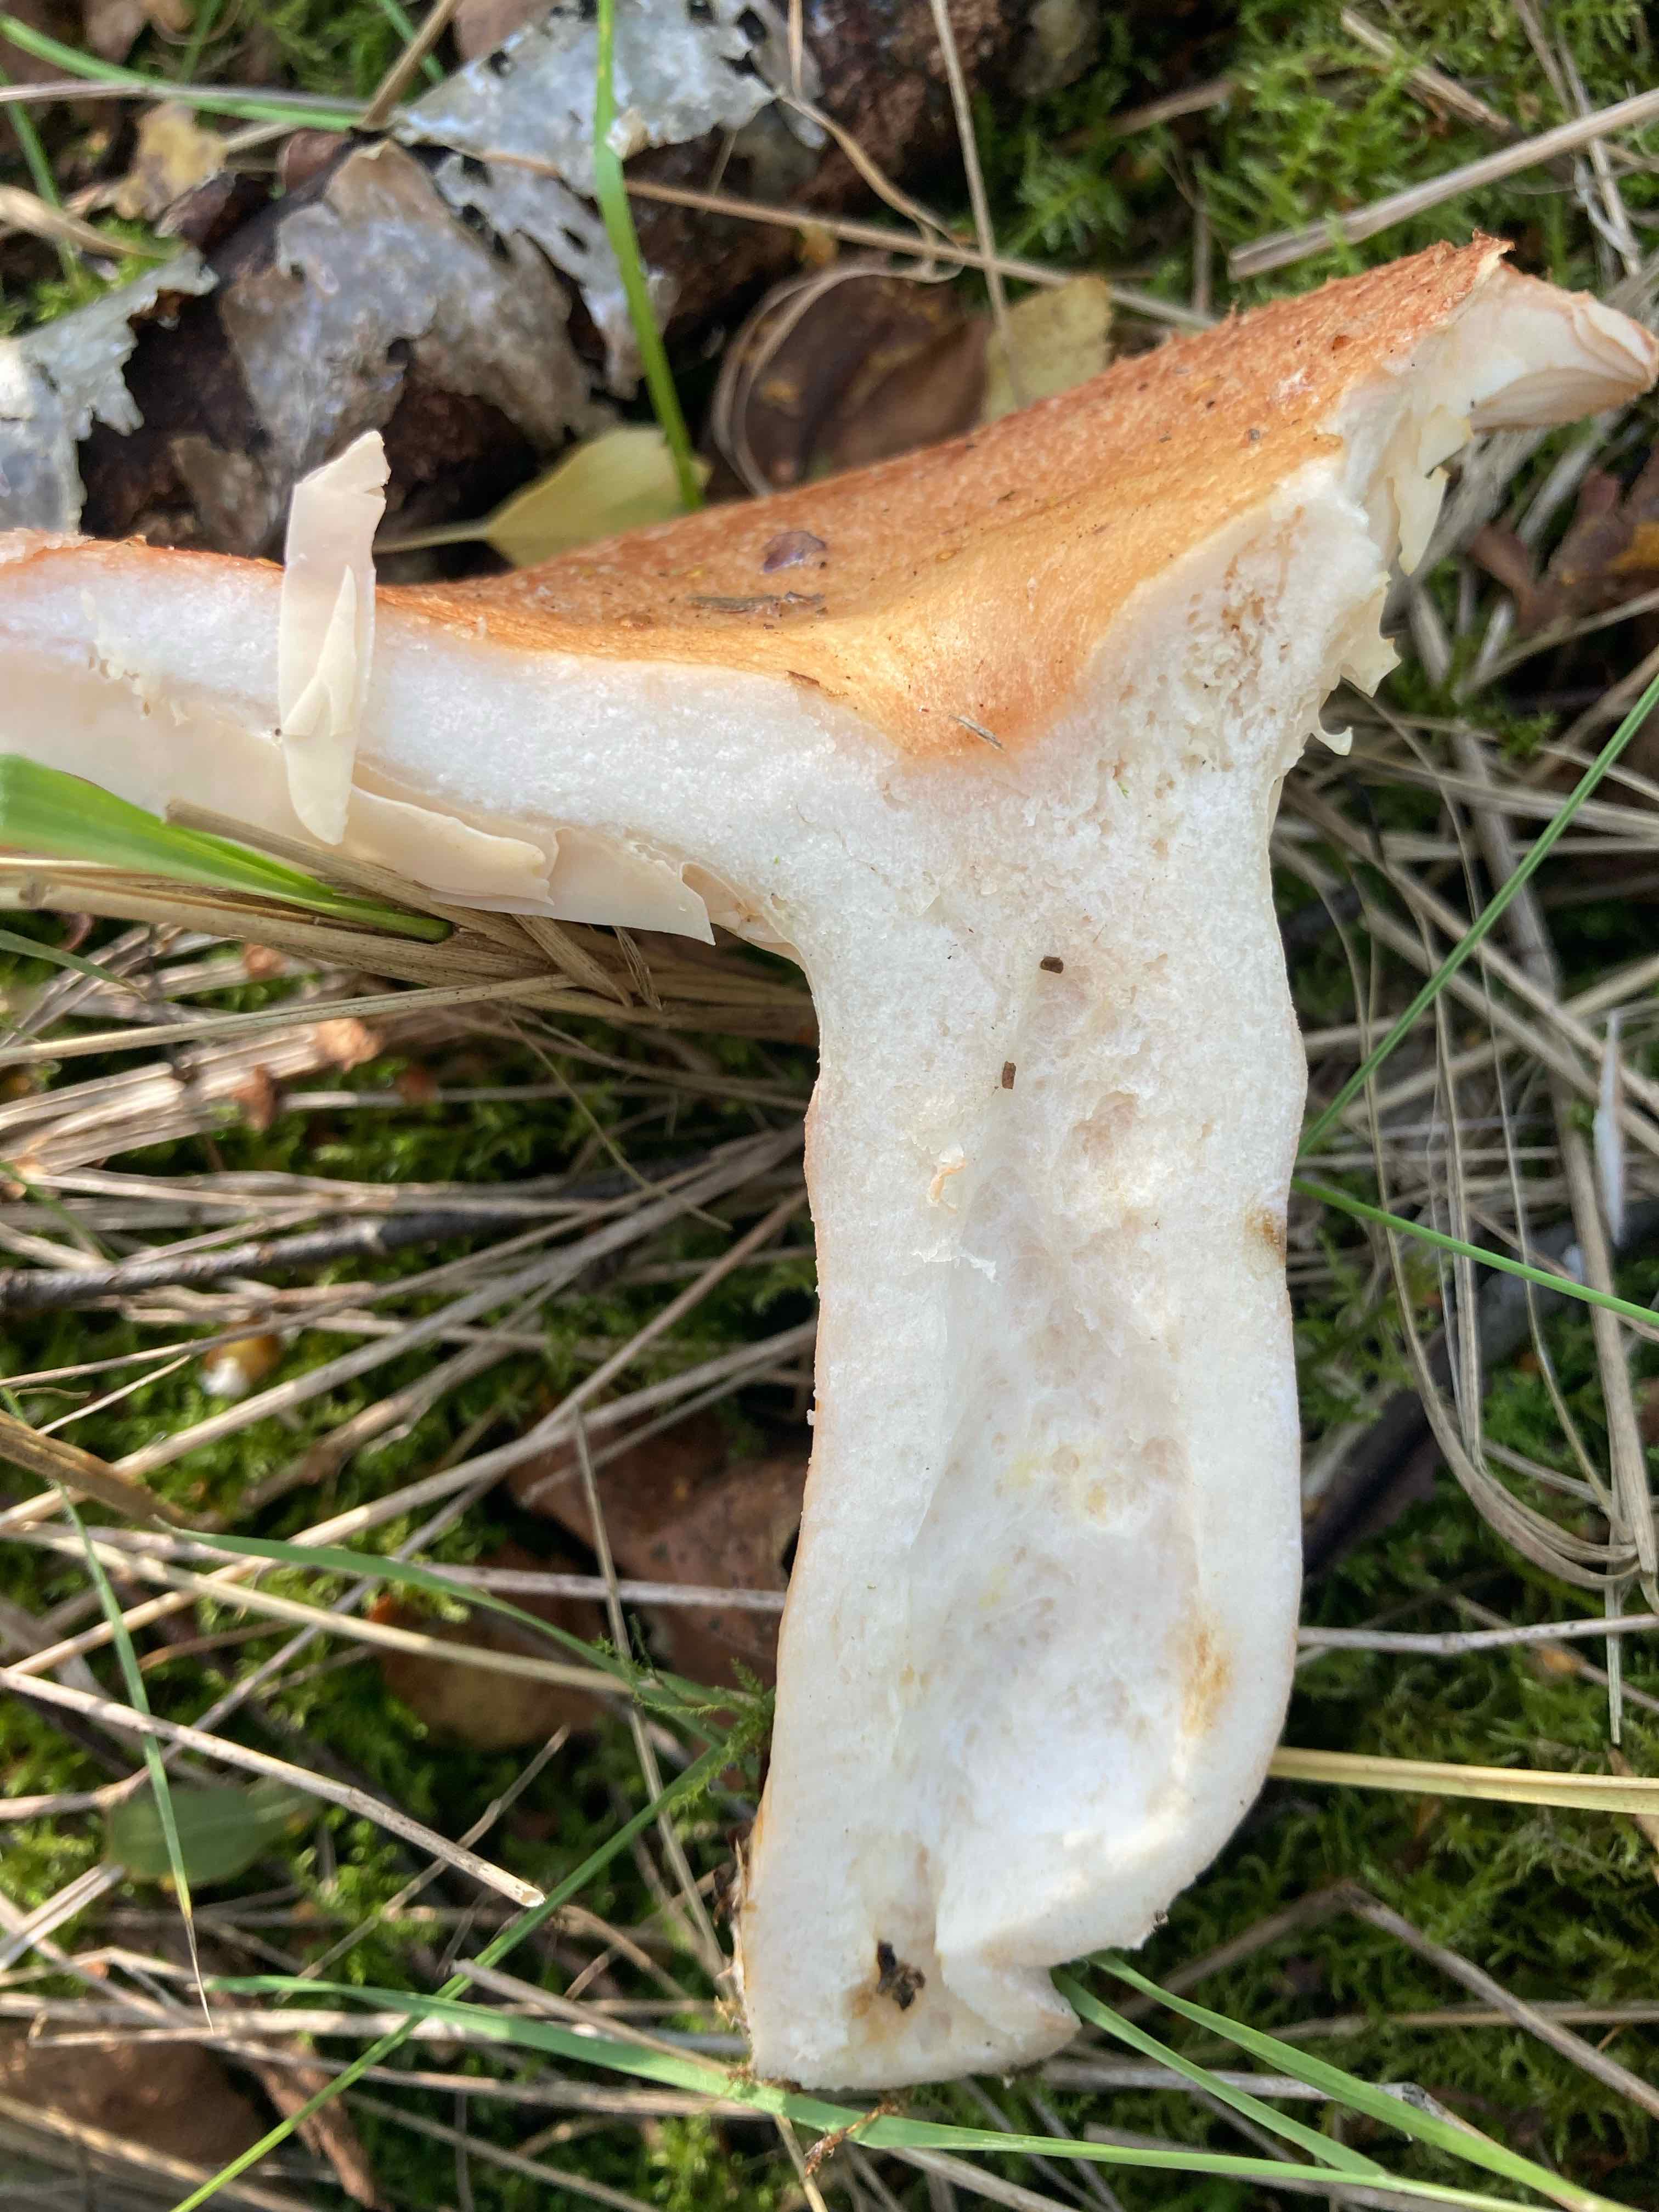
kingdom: Fungi
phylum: Basidiomycota
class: Agaricomycetes
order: Russulales
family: Russulaceae
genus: Lactarius
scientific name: Lactarius torminosus
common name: skægget mælkehat
